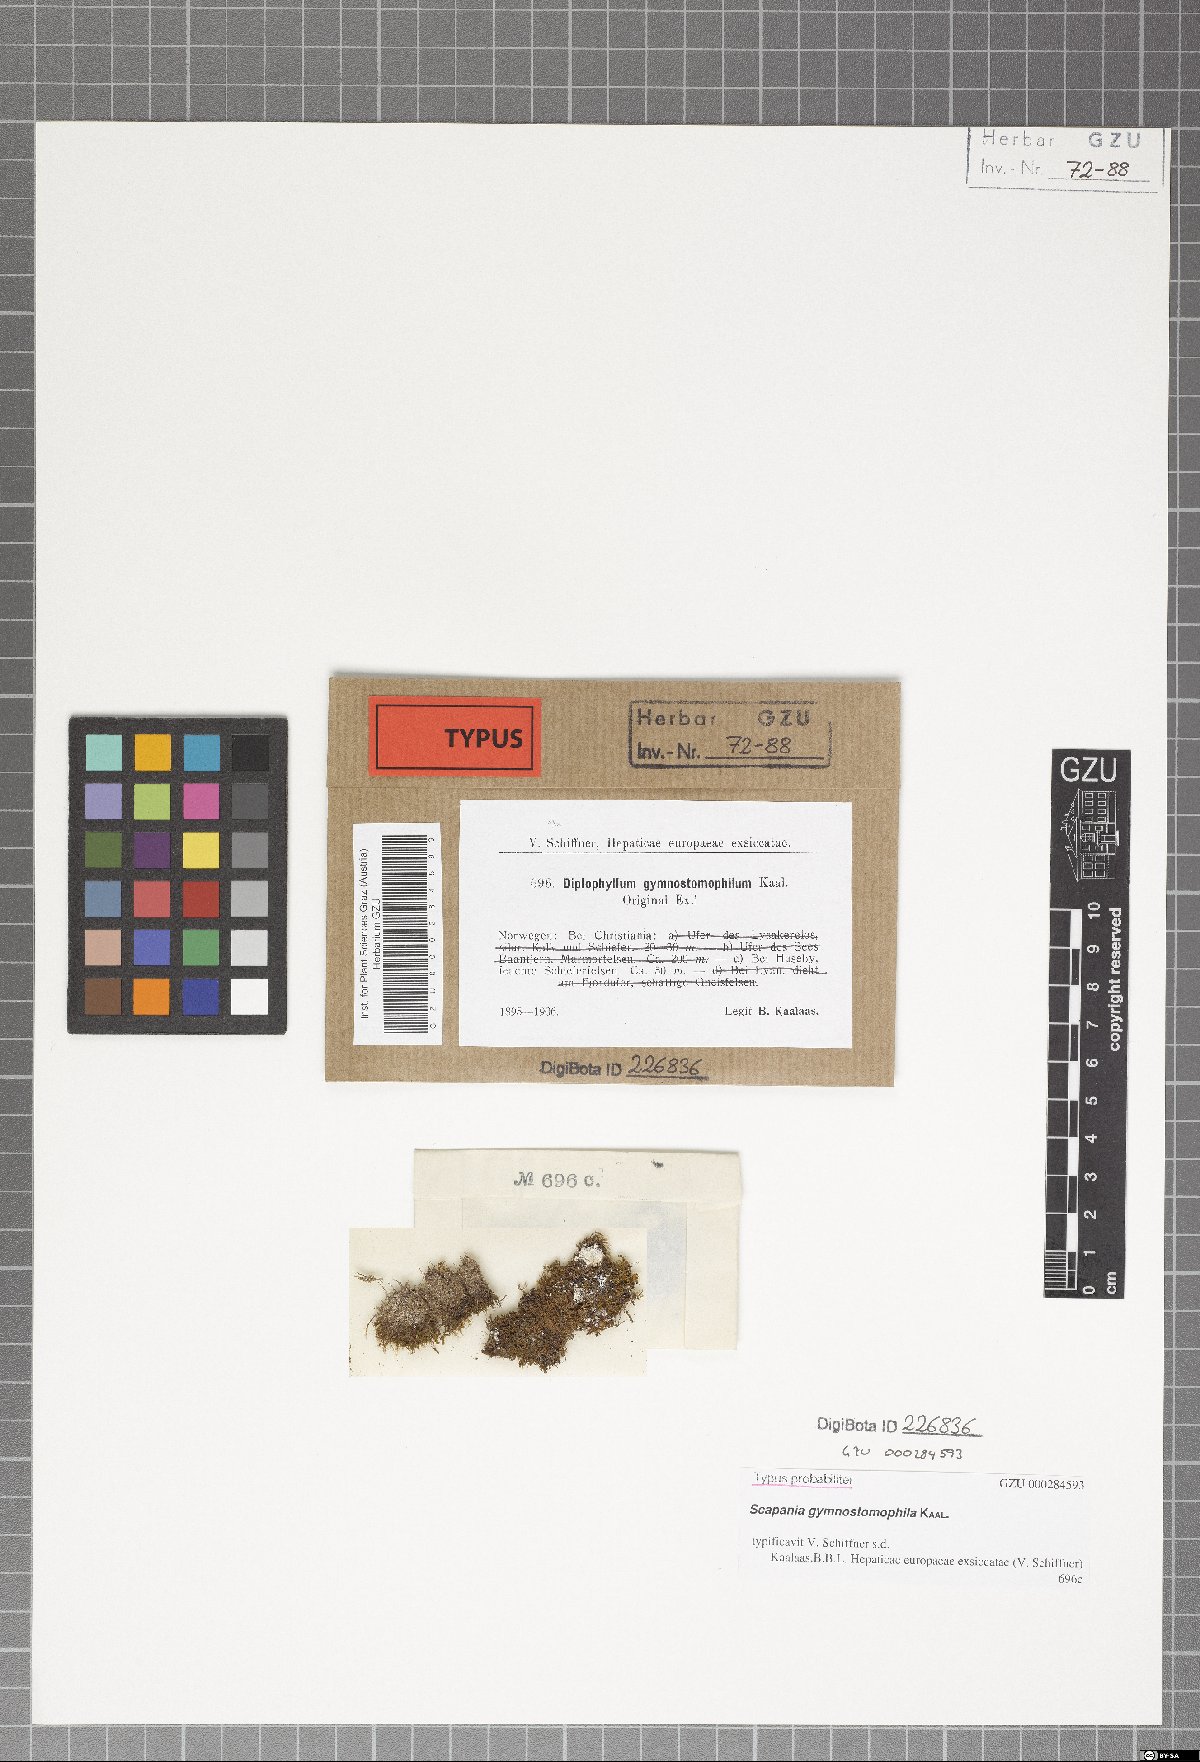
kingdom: Plantae
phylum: Marchantiophyta
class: Jungermanniopsida
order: Jungermanniales
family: Scapaniaceae
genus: Scapania
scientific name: Scapania gymnostomophila
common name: Narrow-lobed earwort
